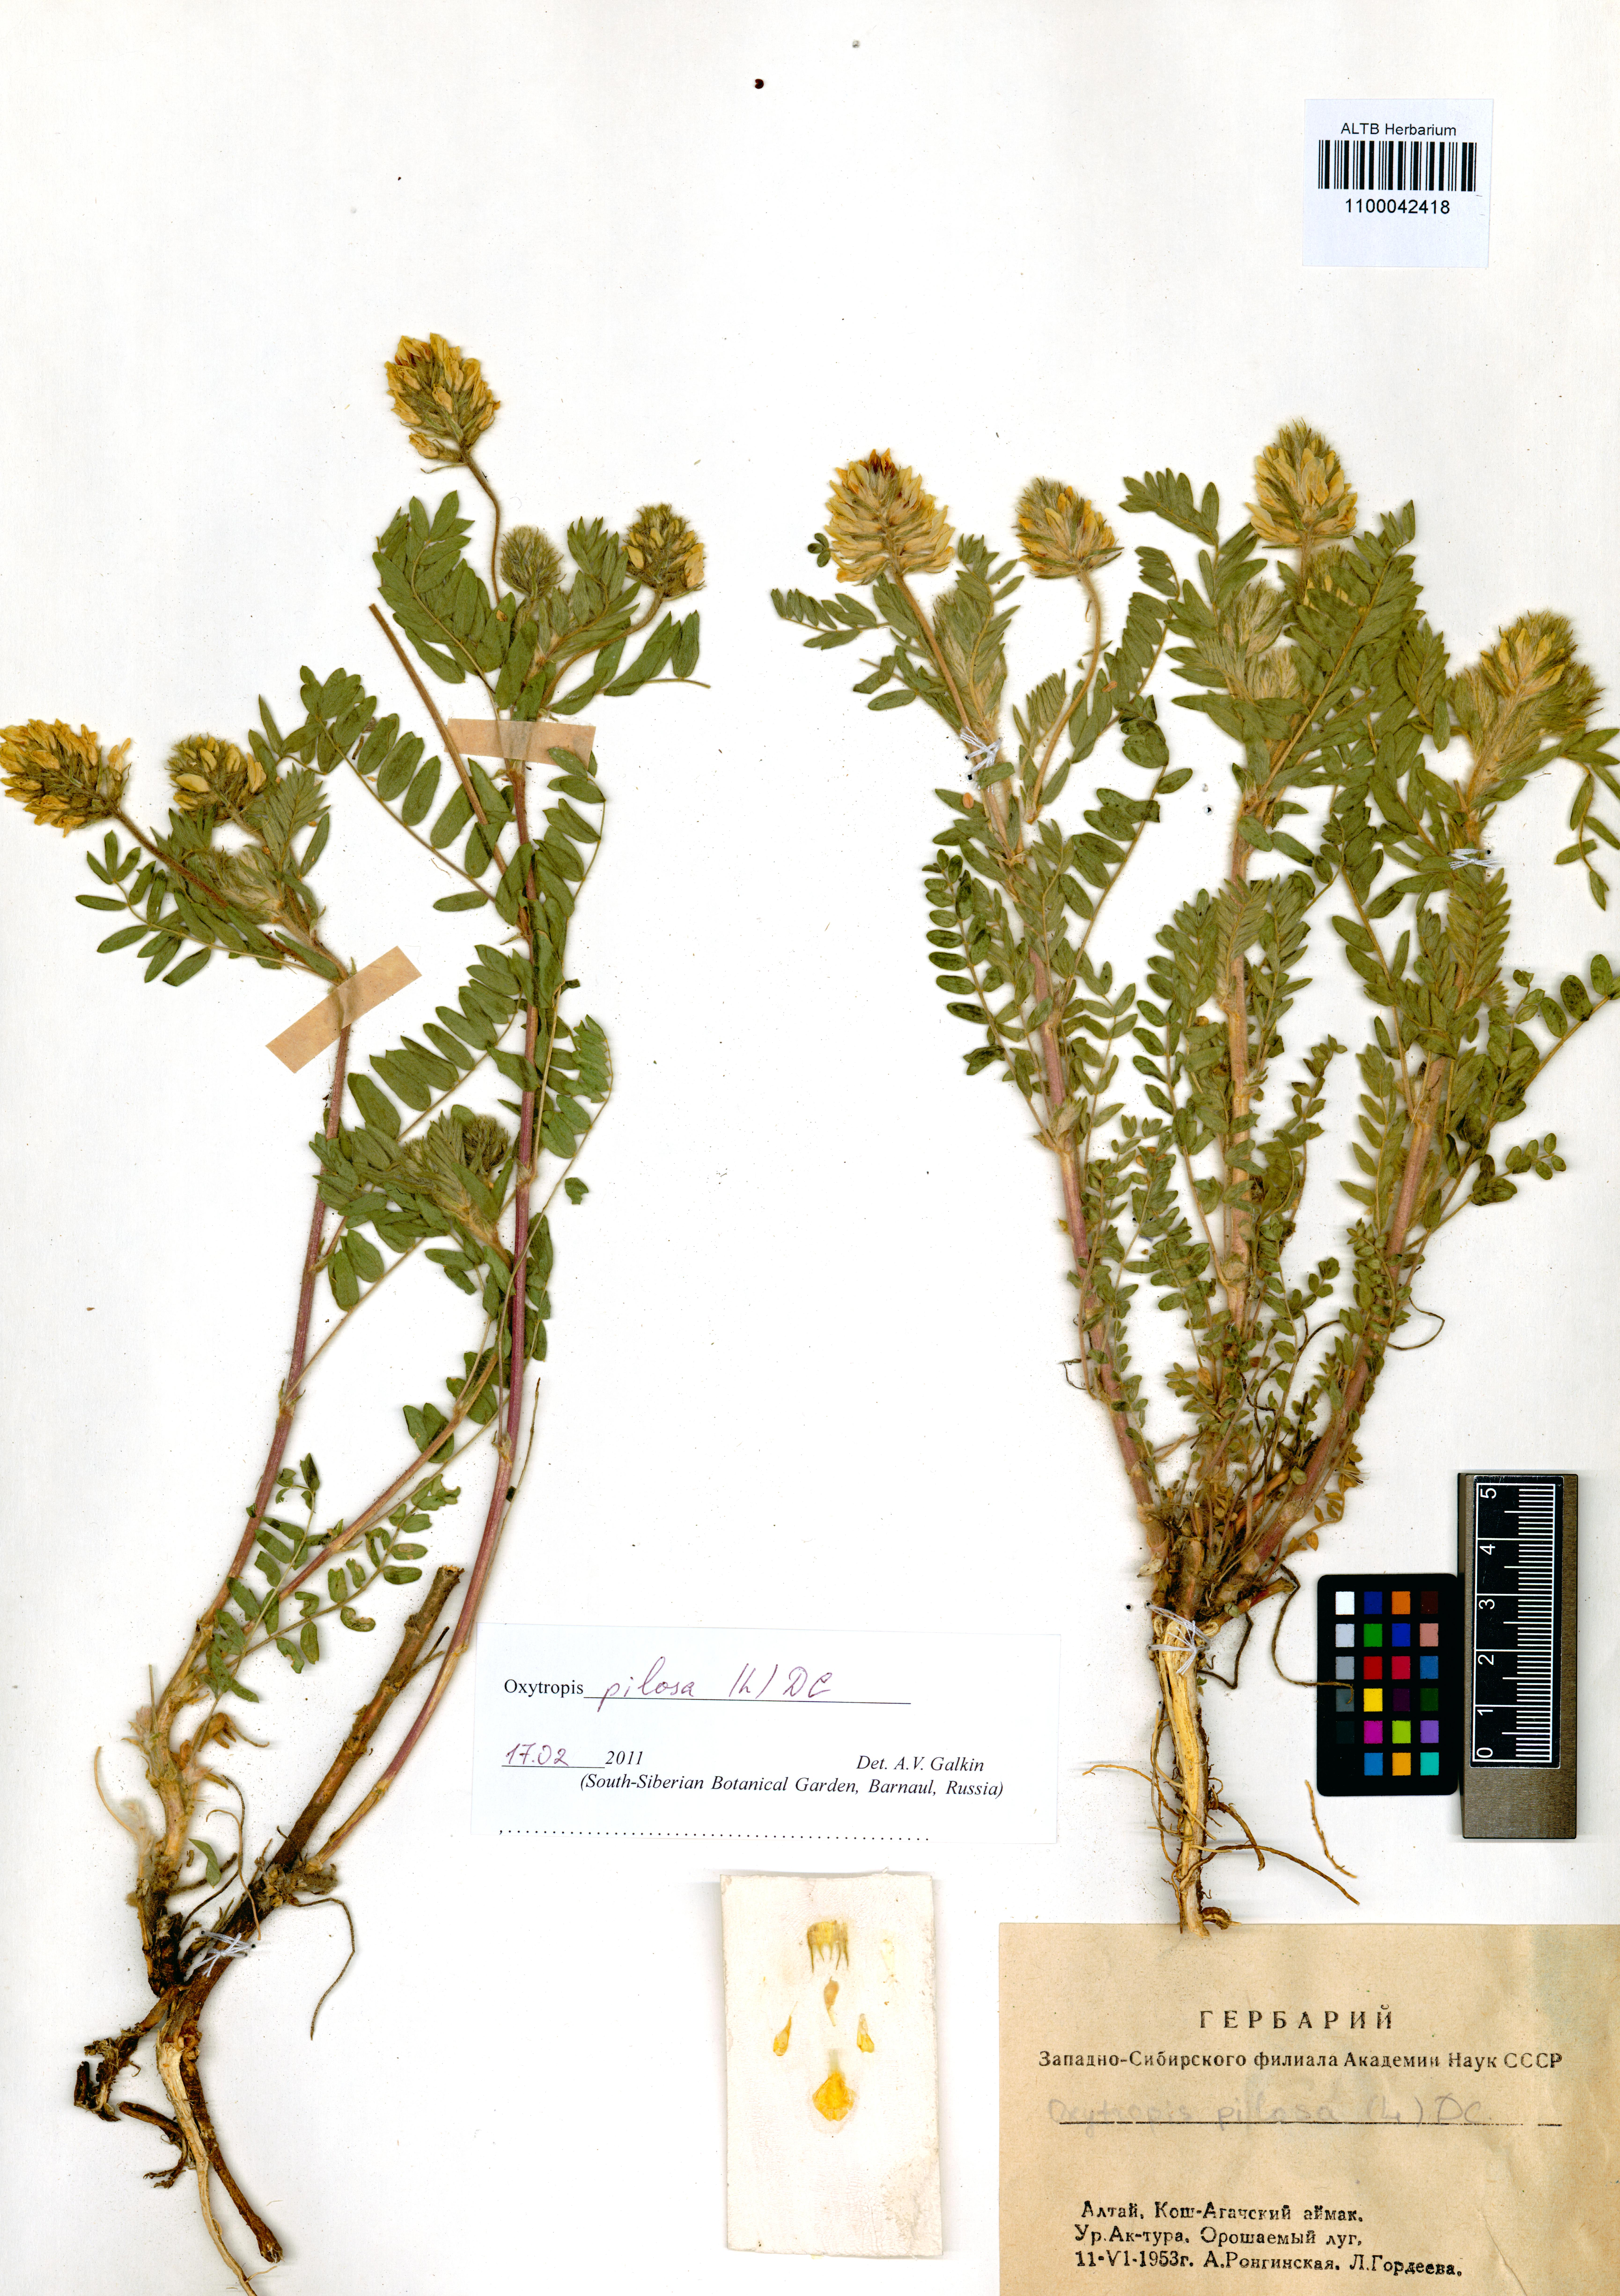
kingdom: Plantae
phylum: Tracheophyta
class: Magnoliopsida
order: Fabales
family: Fabaceae
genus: Oxytropis
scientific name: Oxytropis pilosa
